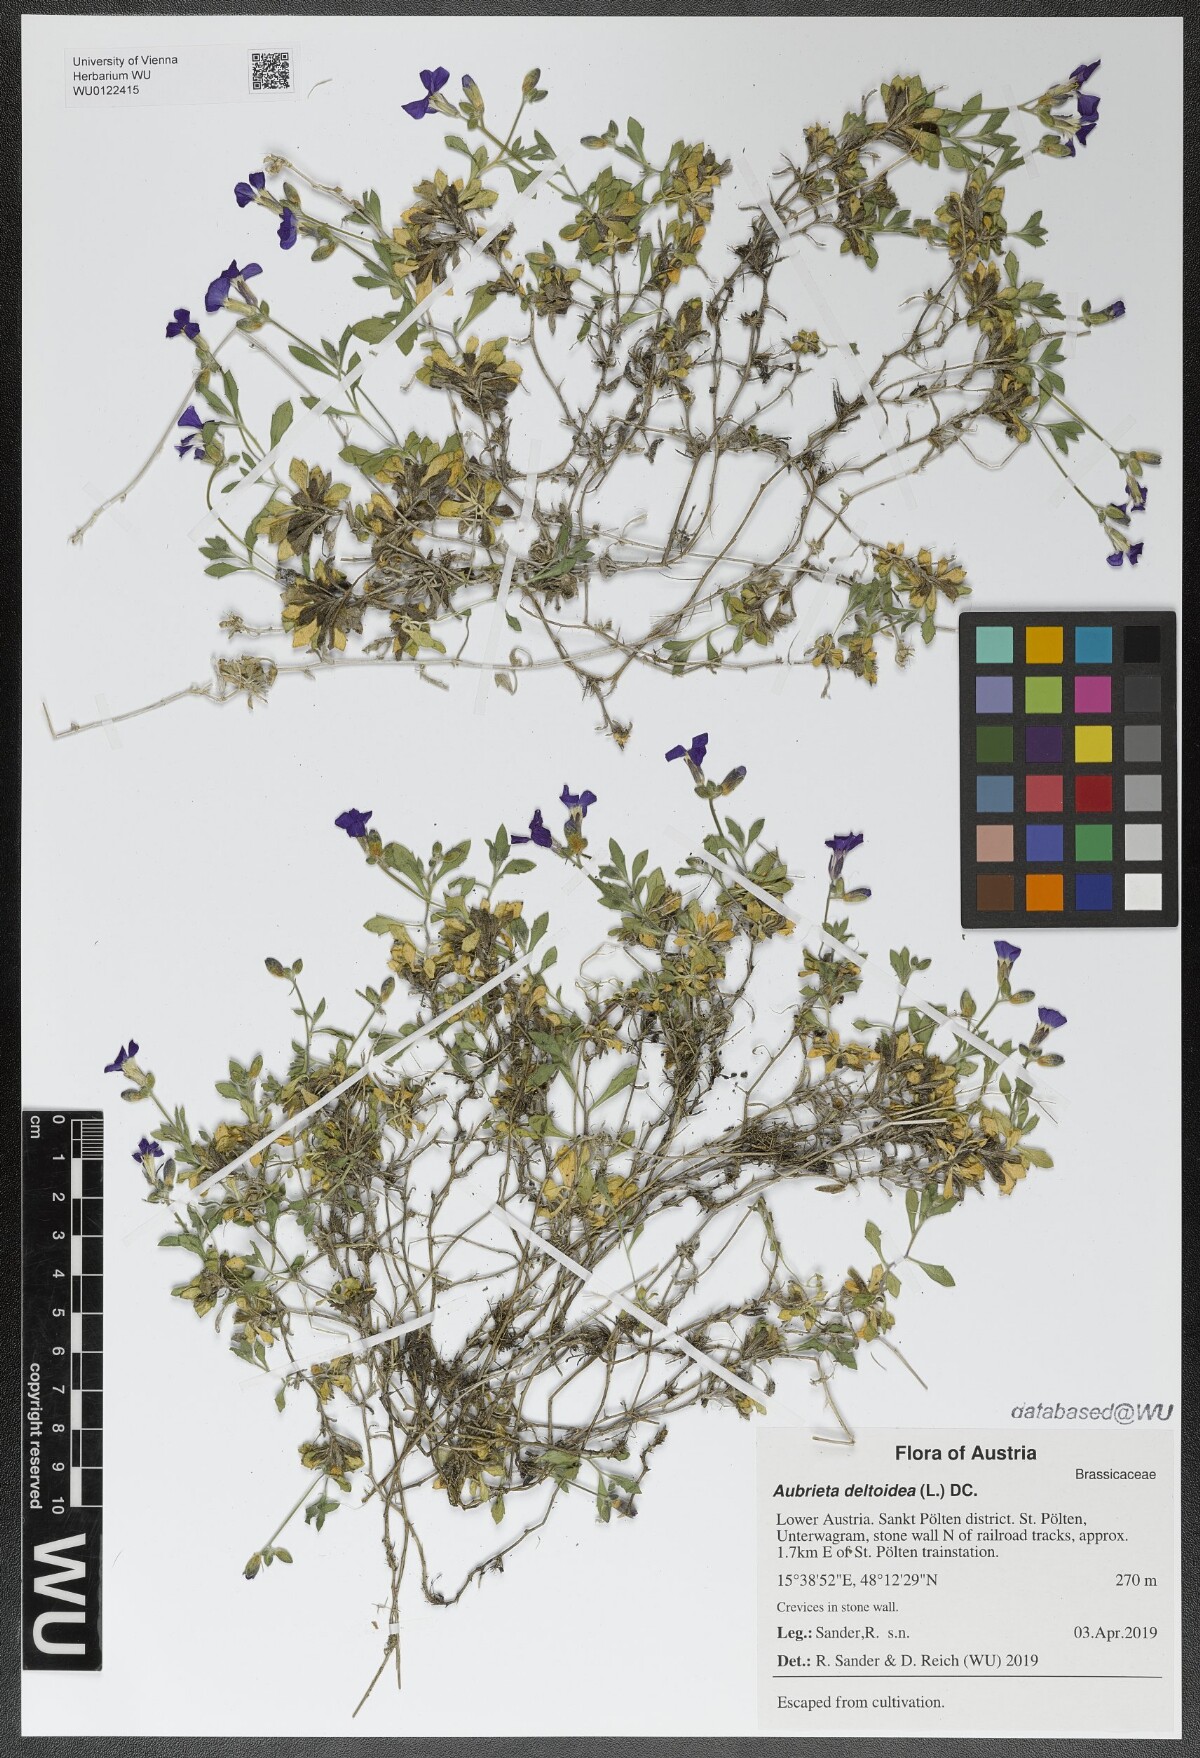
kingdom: Plantae
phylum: Tracheophyta
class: Magnoliopsida
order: Brassicales
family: Brassicaceae
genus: Aubrieta
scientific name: Aubrieta deltoidea
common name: Aubretia
